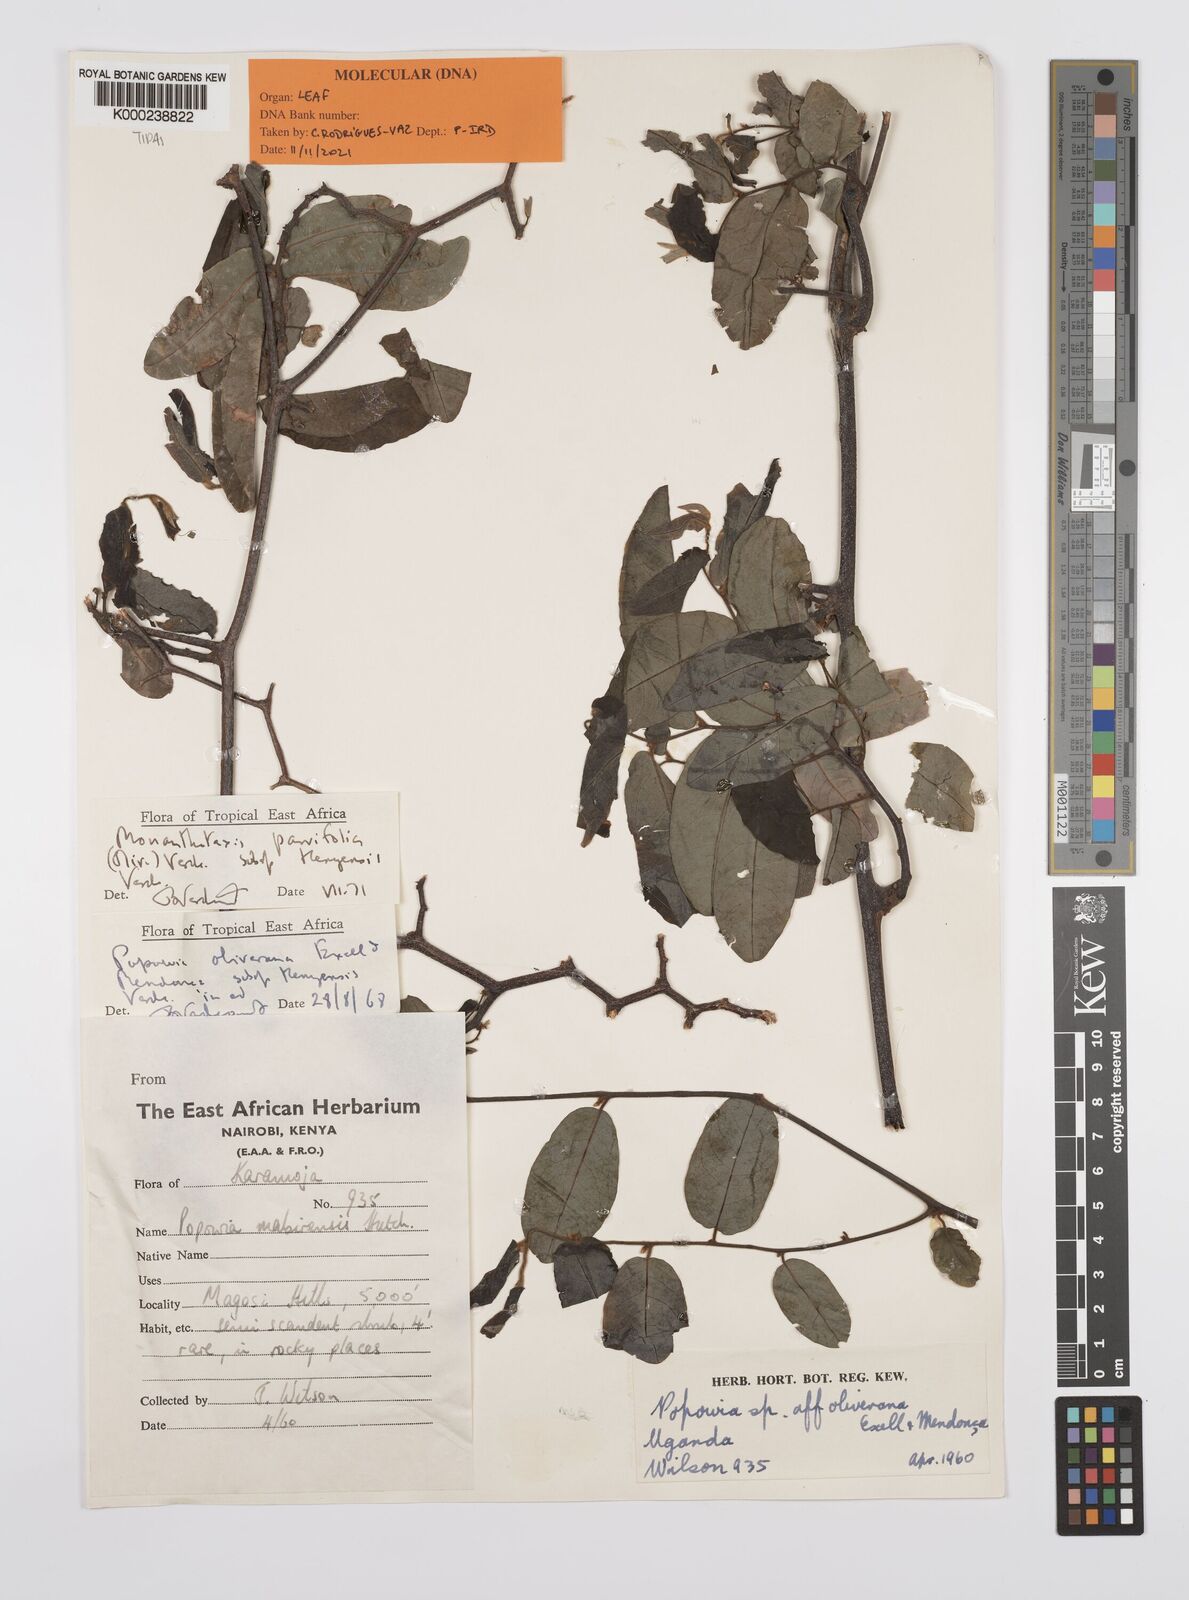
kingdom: Plantae
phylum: Tracheophyta
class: Magnoliopsida
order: Magnoliales
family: Annonaceae
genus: Monanthotaxis
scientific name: Monanthotaxis parvifolia
